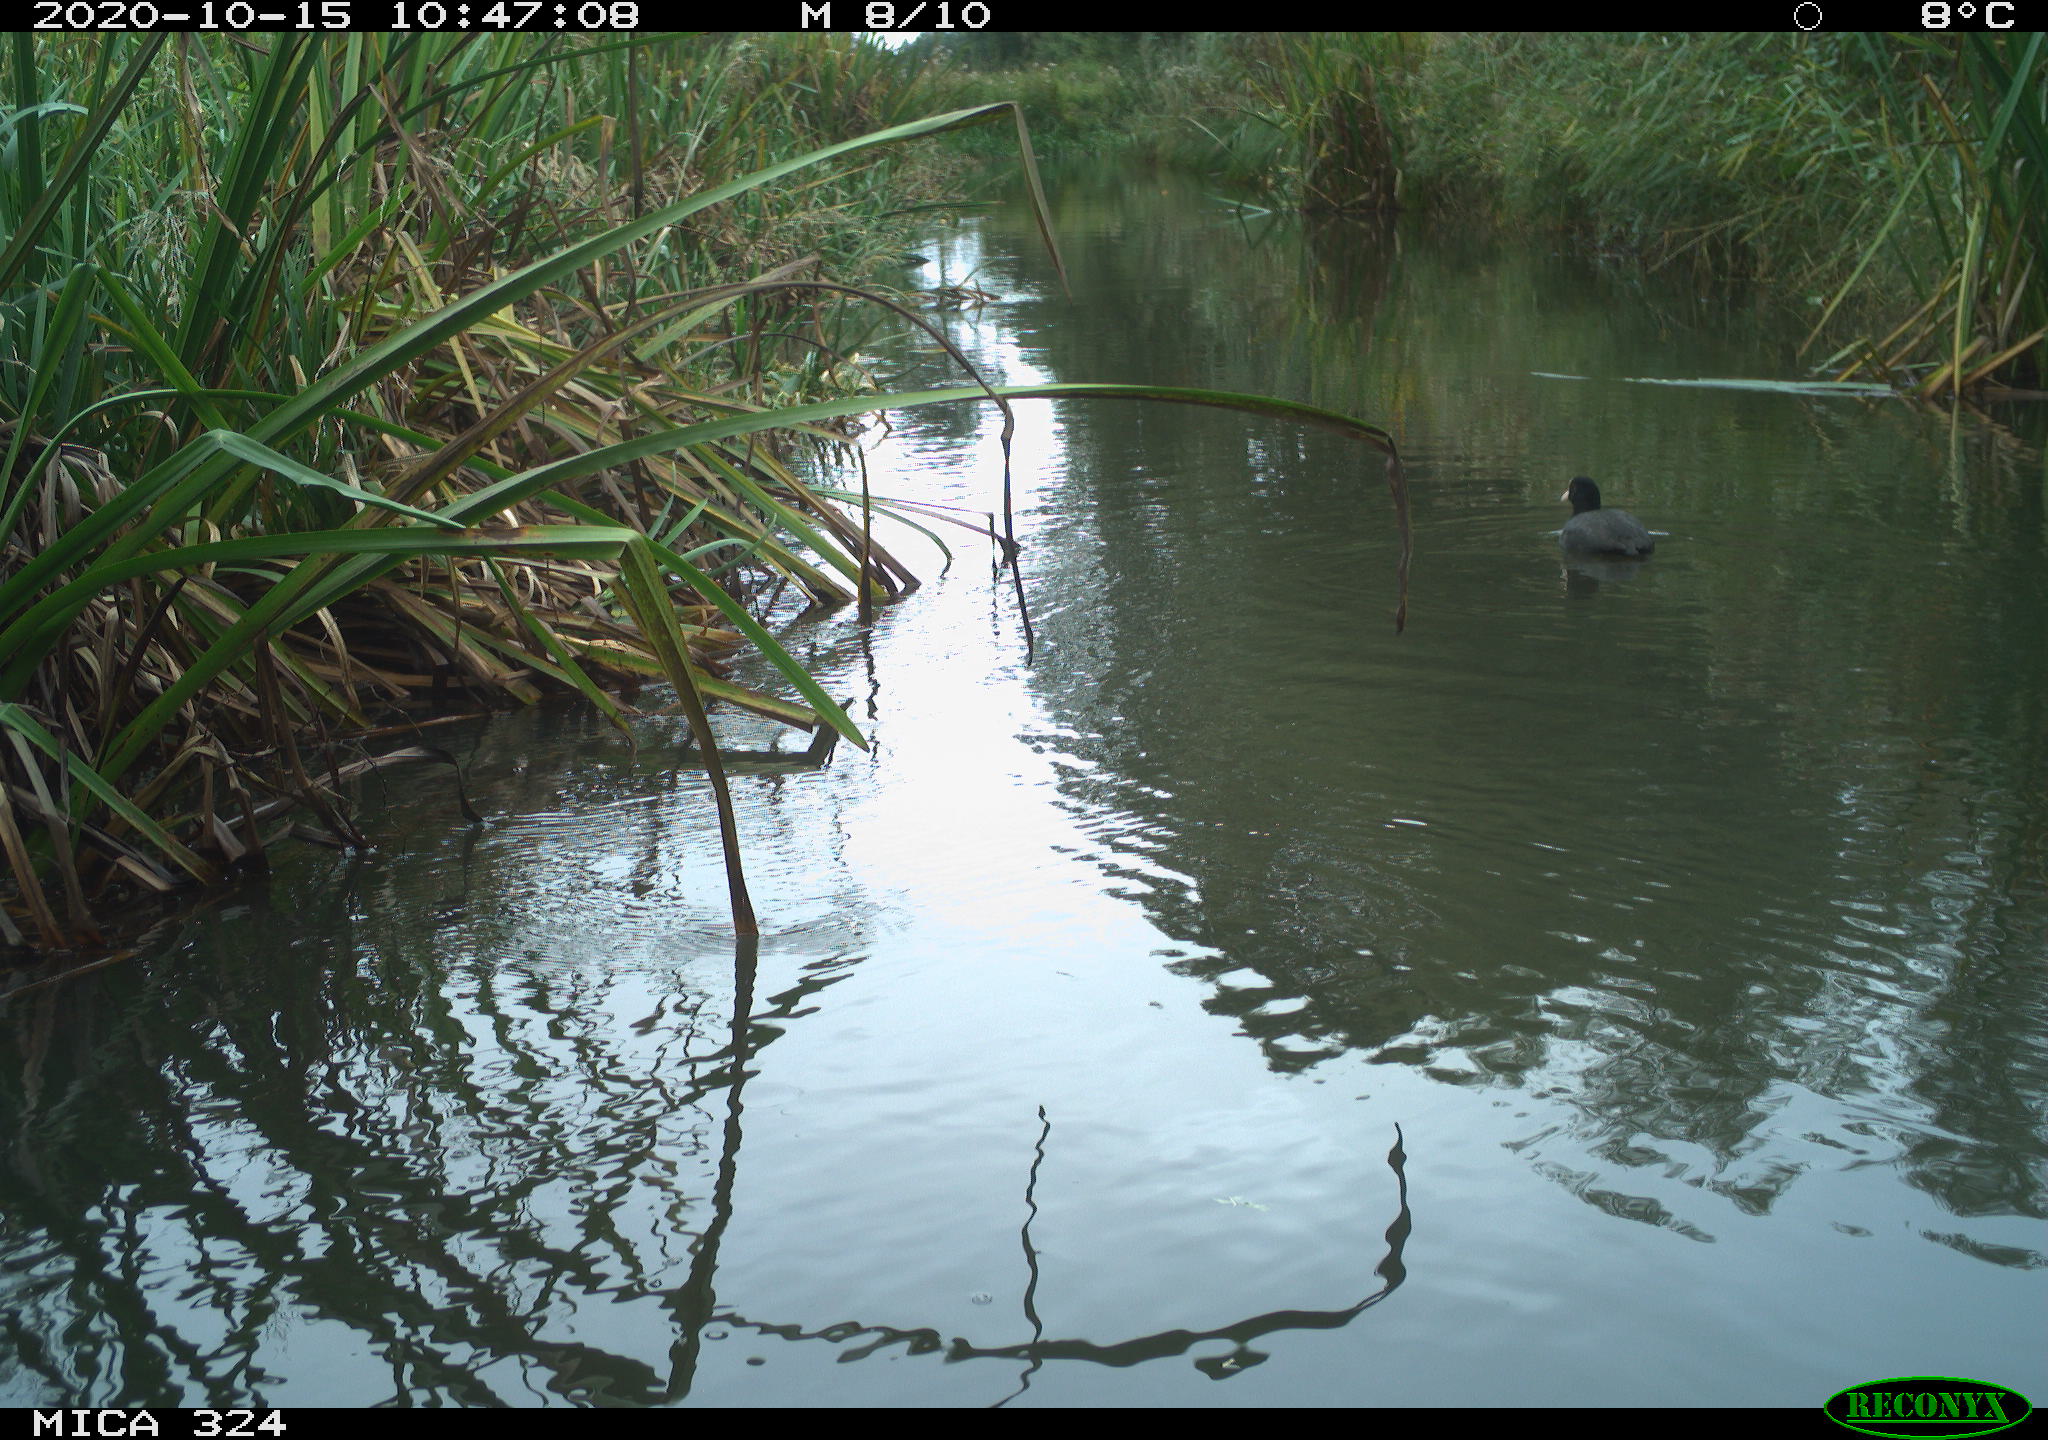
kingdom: Animalia
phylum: Chordata
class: Aves
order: Gruiformes
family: Rallidae
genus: Fulica
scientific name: Fulica atra
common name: Eurasian coot
